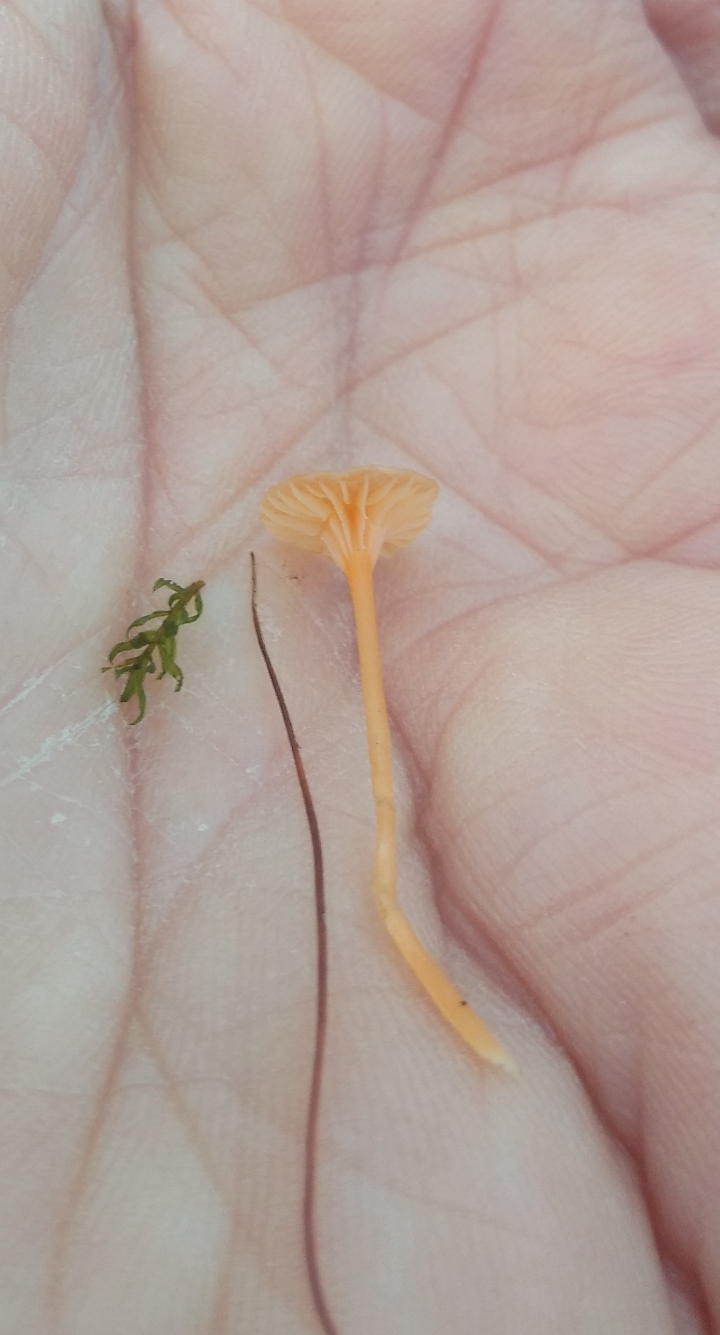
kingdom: Fungi
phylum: Basidiomycota
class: Agaricomycetes
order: Hymenochaetales
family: Rickenellaceae
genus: Rickenella
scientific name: Rickenella fibula
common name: orange mosnavlehat
